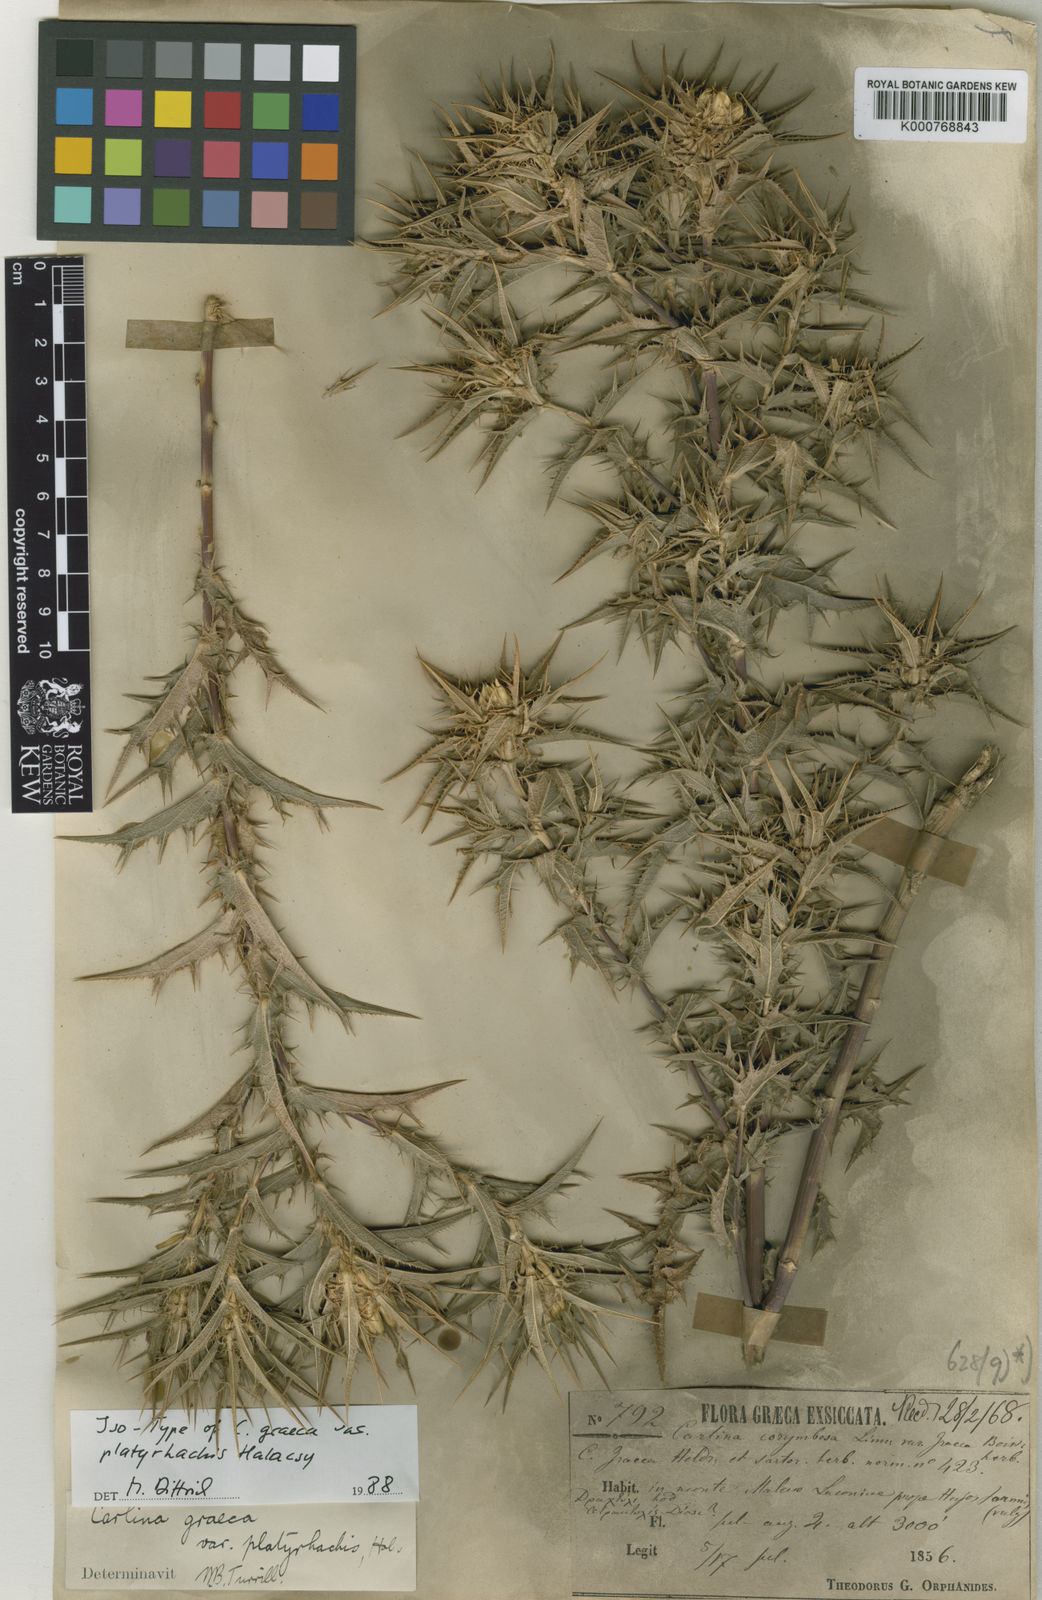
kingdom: Plantae
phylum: Tracheophyta
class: Magnoliopsida
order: Asterales
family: Asteraceae
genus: Carlina
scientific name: Carlina graeca
